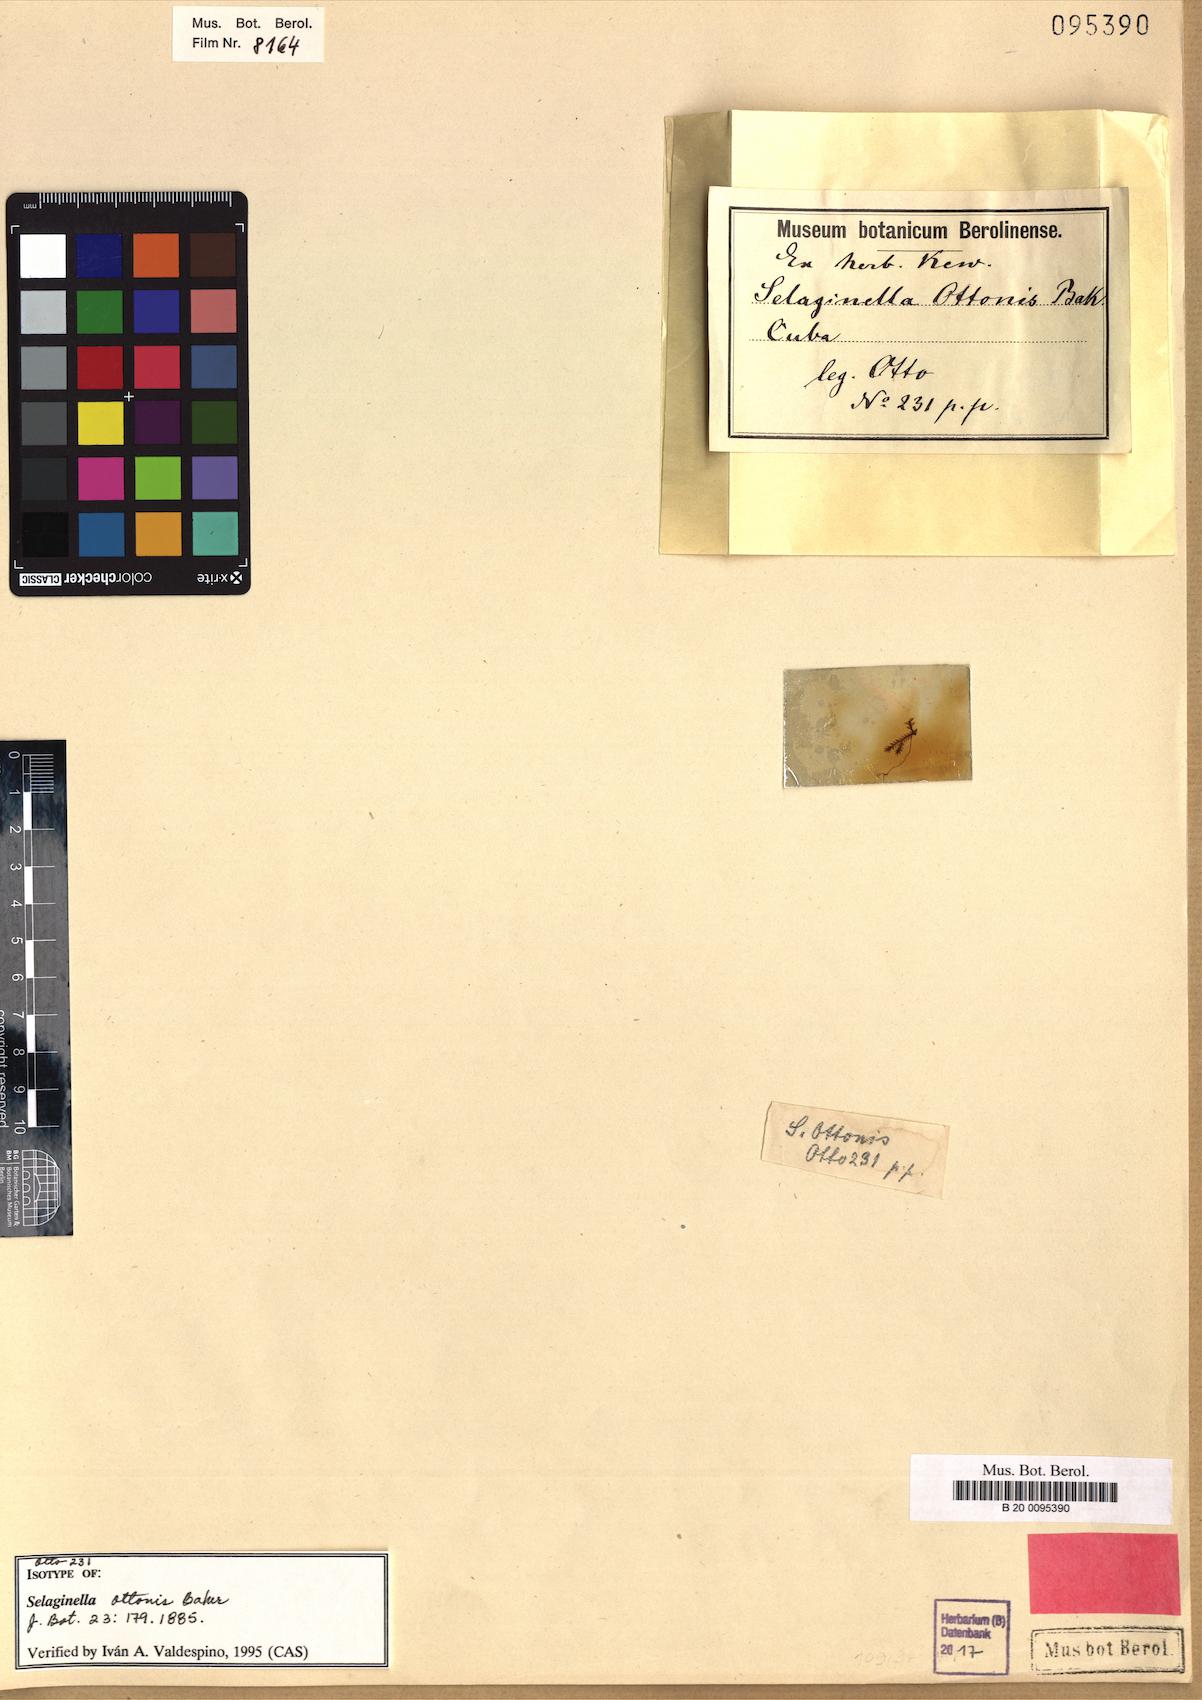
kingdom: Plantae
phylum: Tracheophyta
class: Lycopodiopsida
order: Selaginellales
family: Selaginellaceae
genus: Selaginella
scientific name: Selaginella cordifolia
